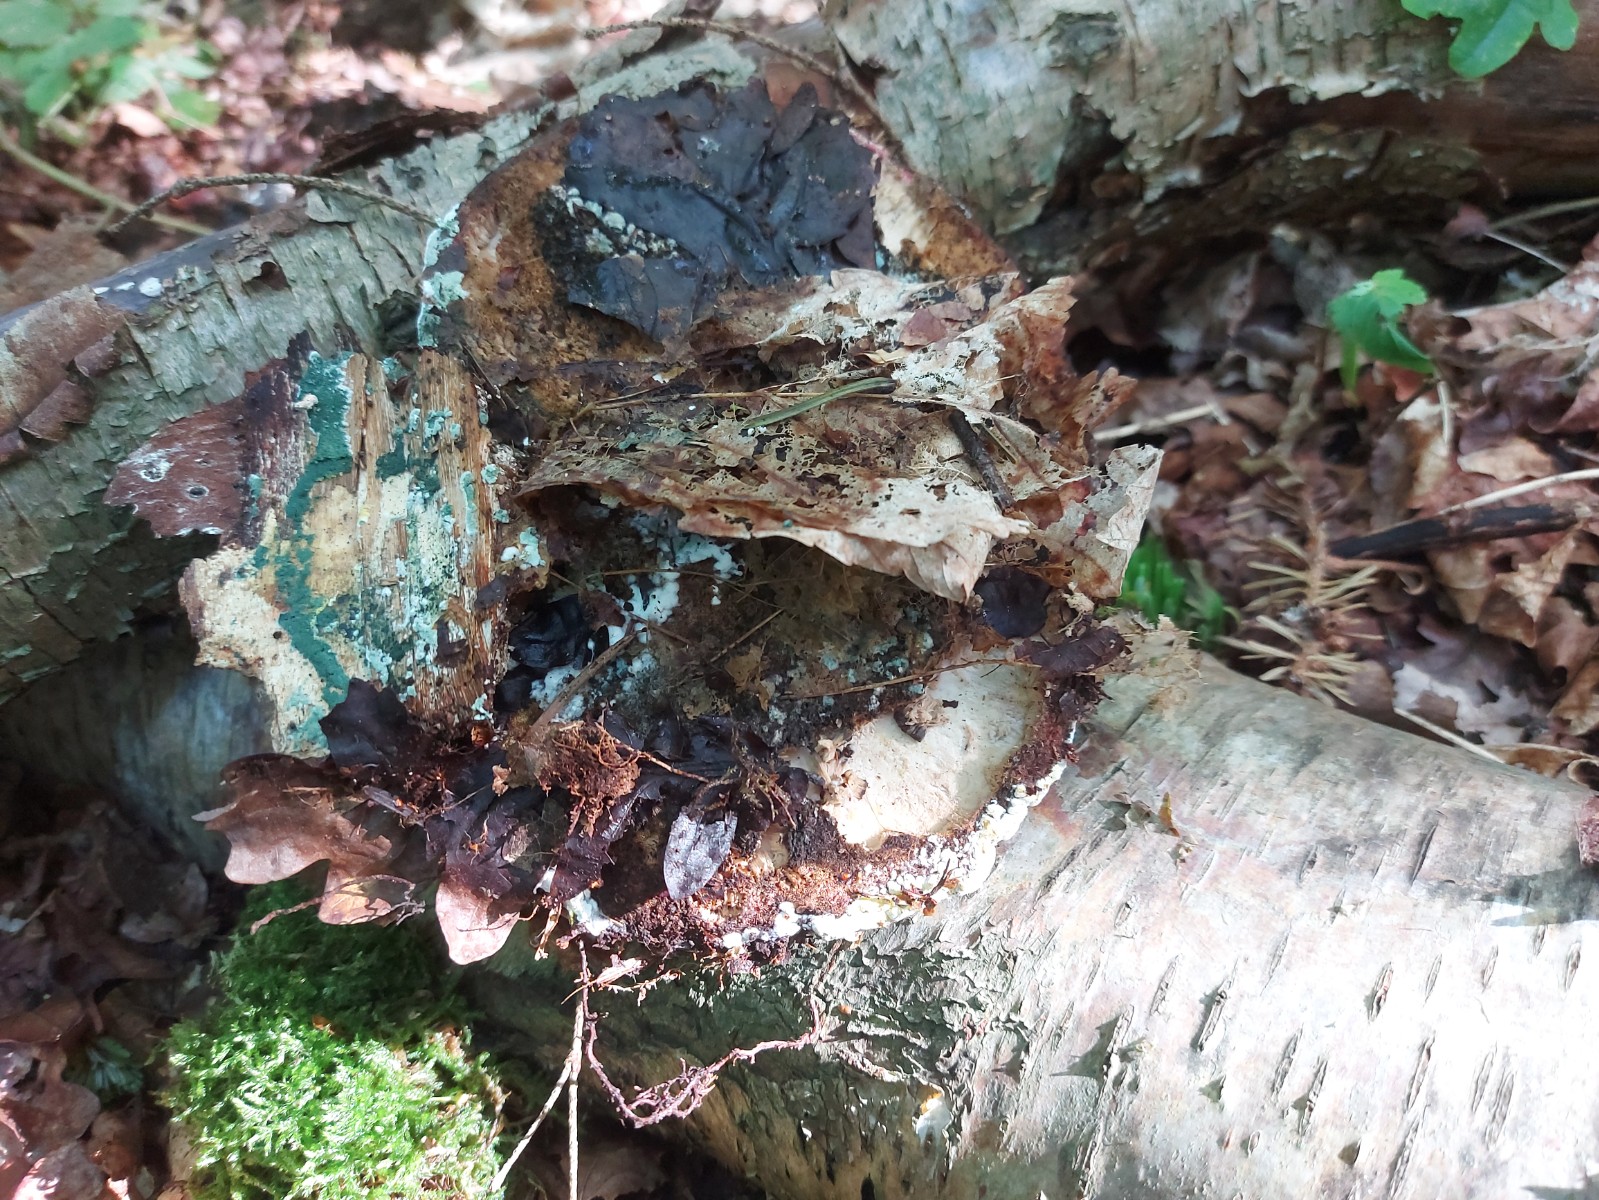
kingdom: Fungi
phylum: Ascomycota
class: Sordariomycetes
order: Hypocreales
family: Hypocreaceae
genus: Trichoderma
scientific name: Trichoderma pulvinatum
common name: snyltende kødkerne
